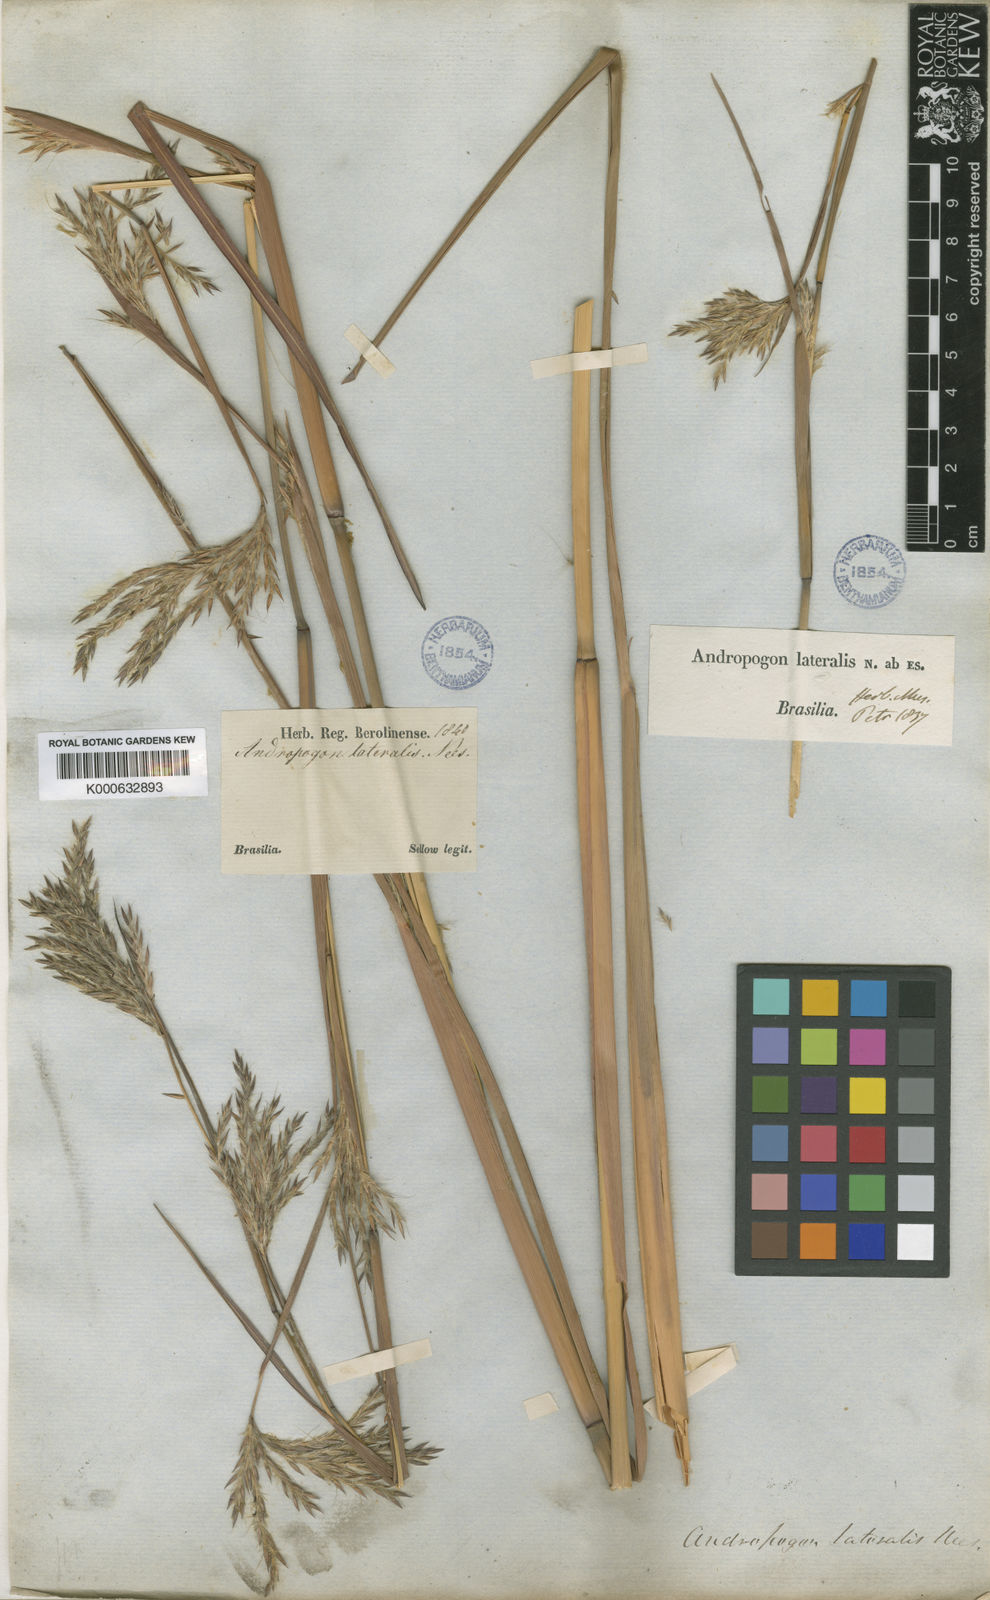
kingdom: Plantae
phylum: Tracheophyta
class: Liliopsida
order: Poales
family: Poaceae
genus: Andropogon
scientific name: Andropogon hypogynus
